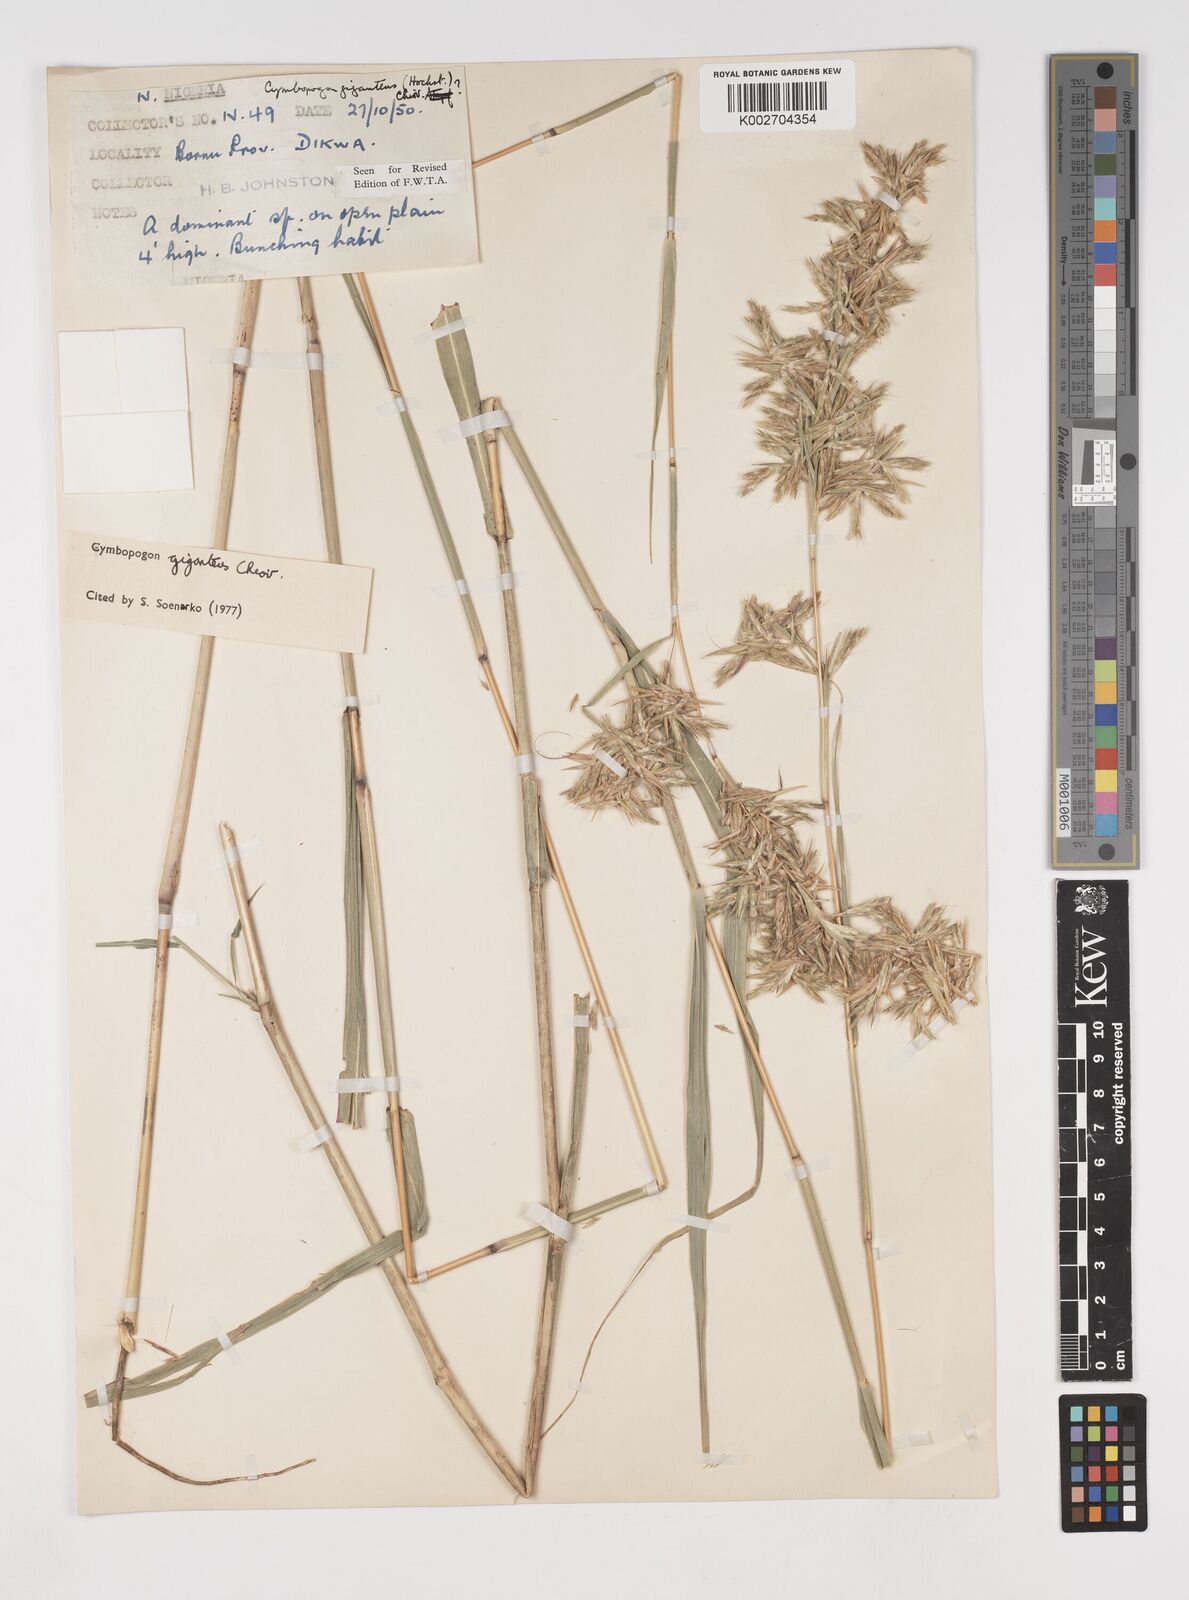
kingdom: Plantae
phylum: Tracheophyta
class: Liliopsida
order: Poales
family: Poaceae
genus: Cymbopogon
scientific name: Cymbopogon giganteus
